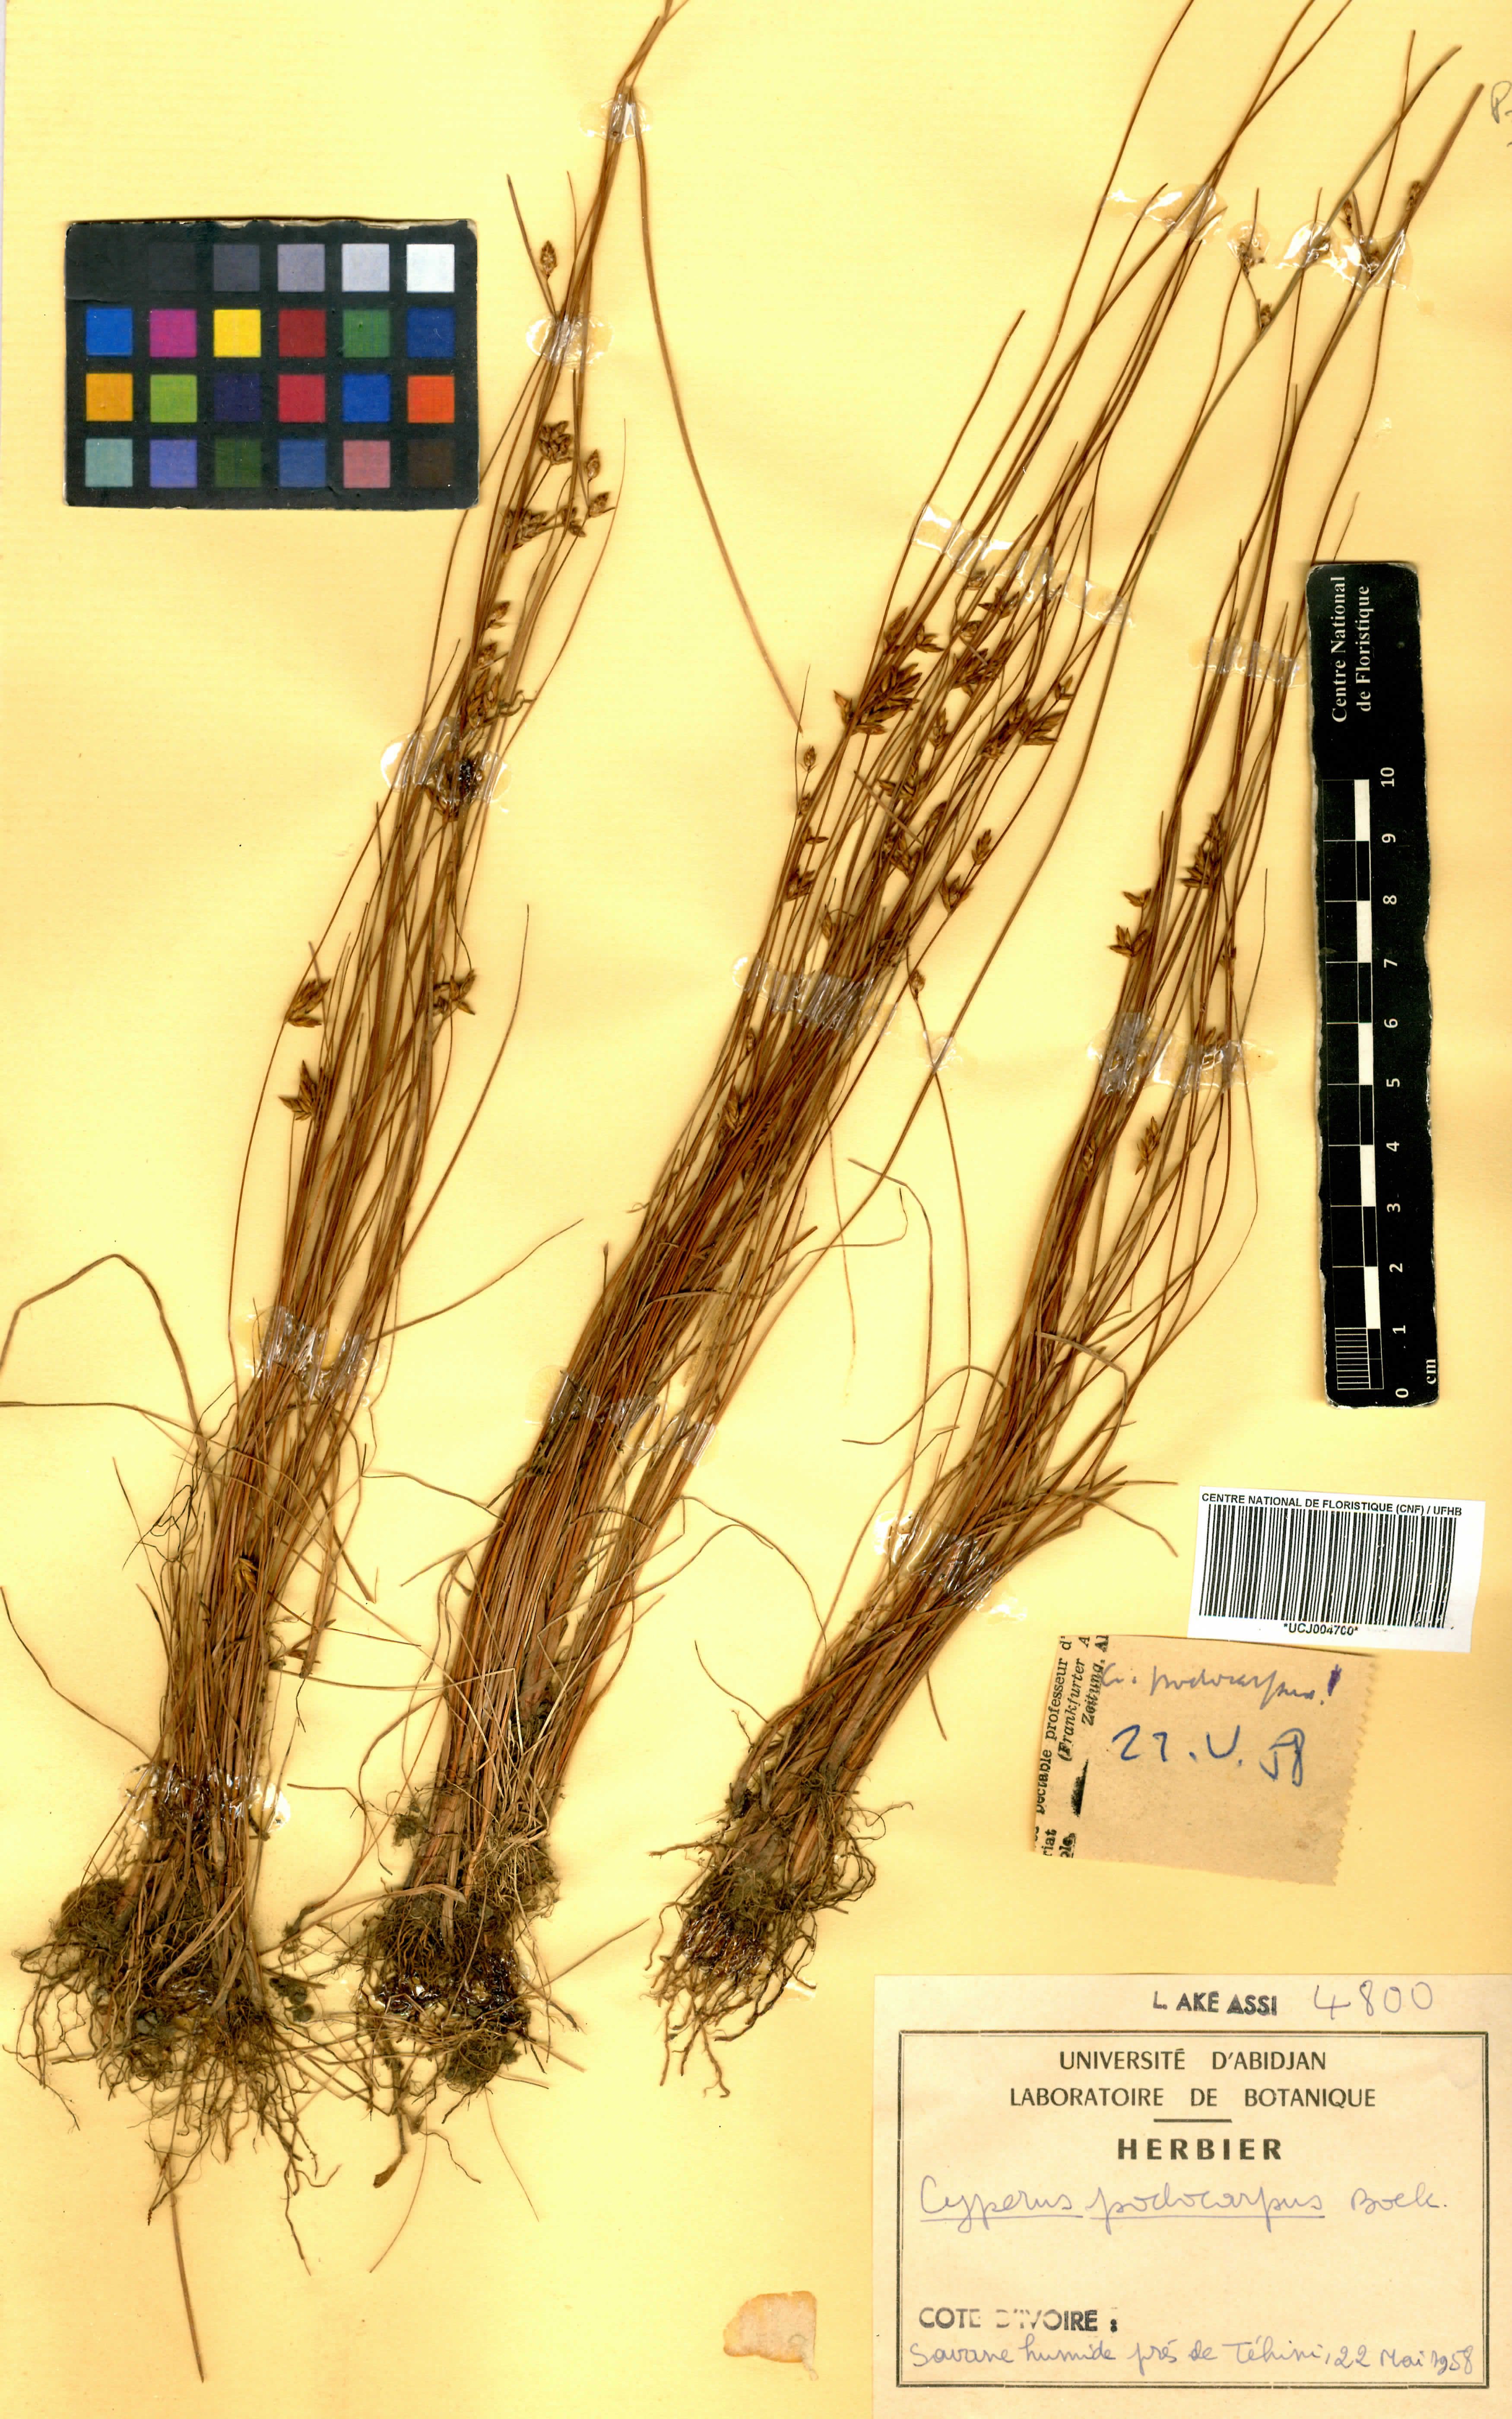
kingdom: Plantae
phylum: Tracheophyta
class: Liliopsida
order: Poales
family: Cyperaceae
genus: Cyperus
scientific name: Cyperus podocarpus
